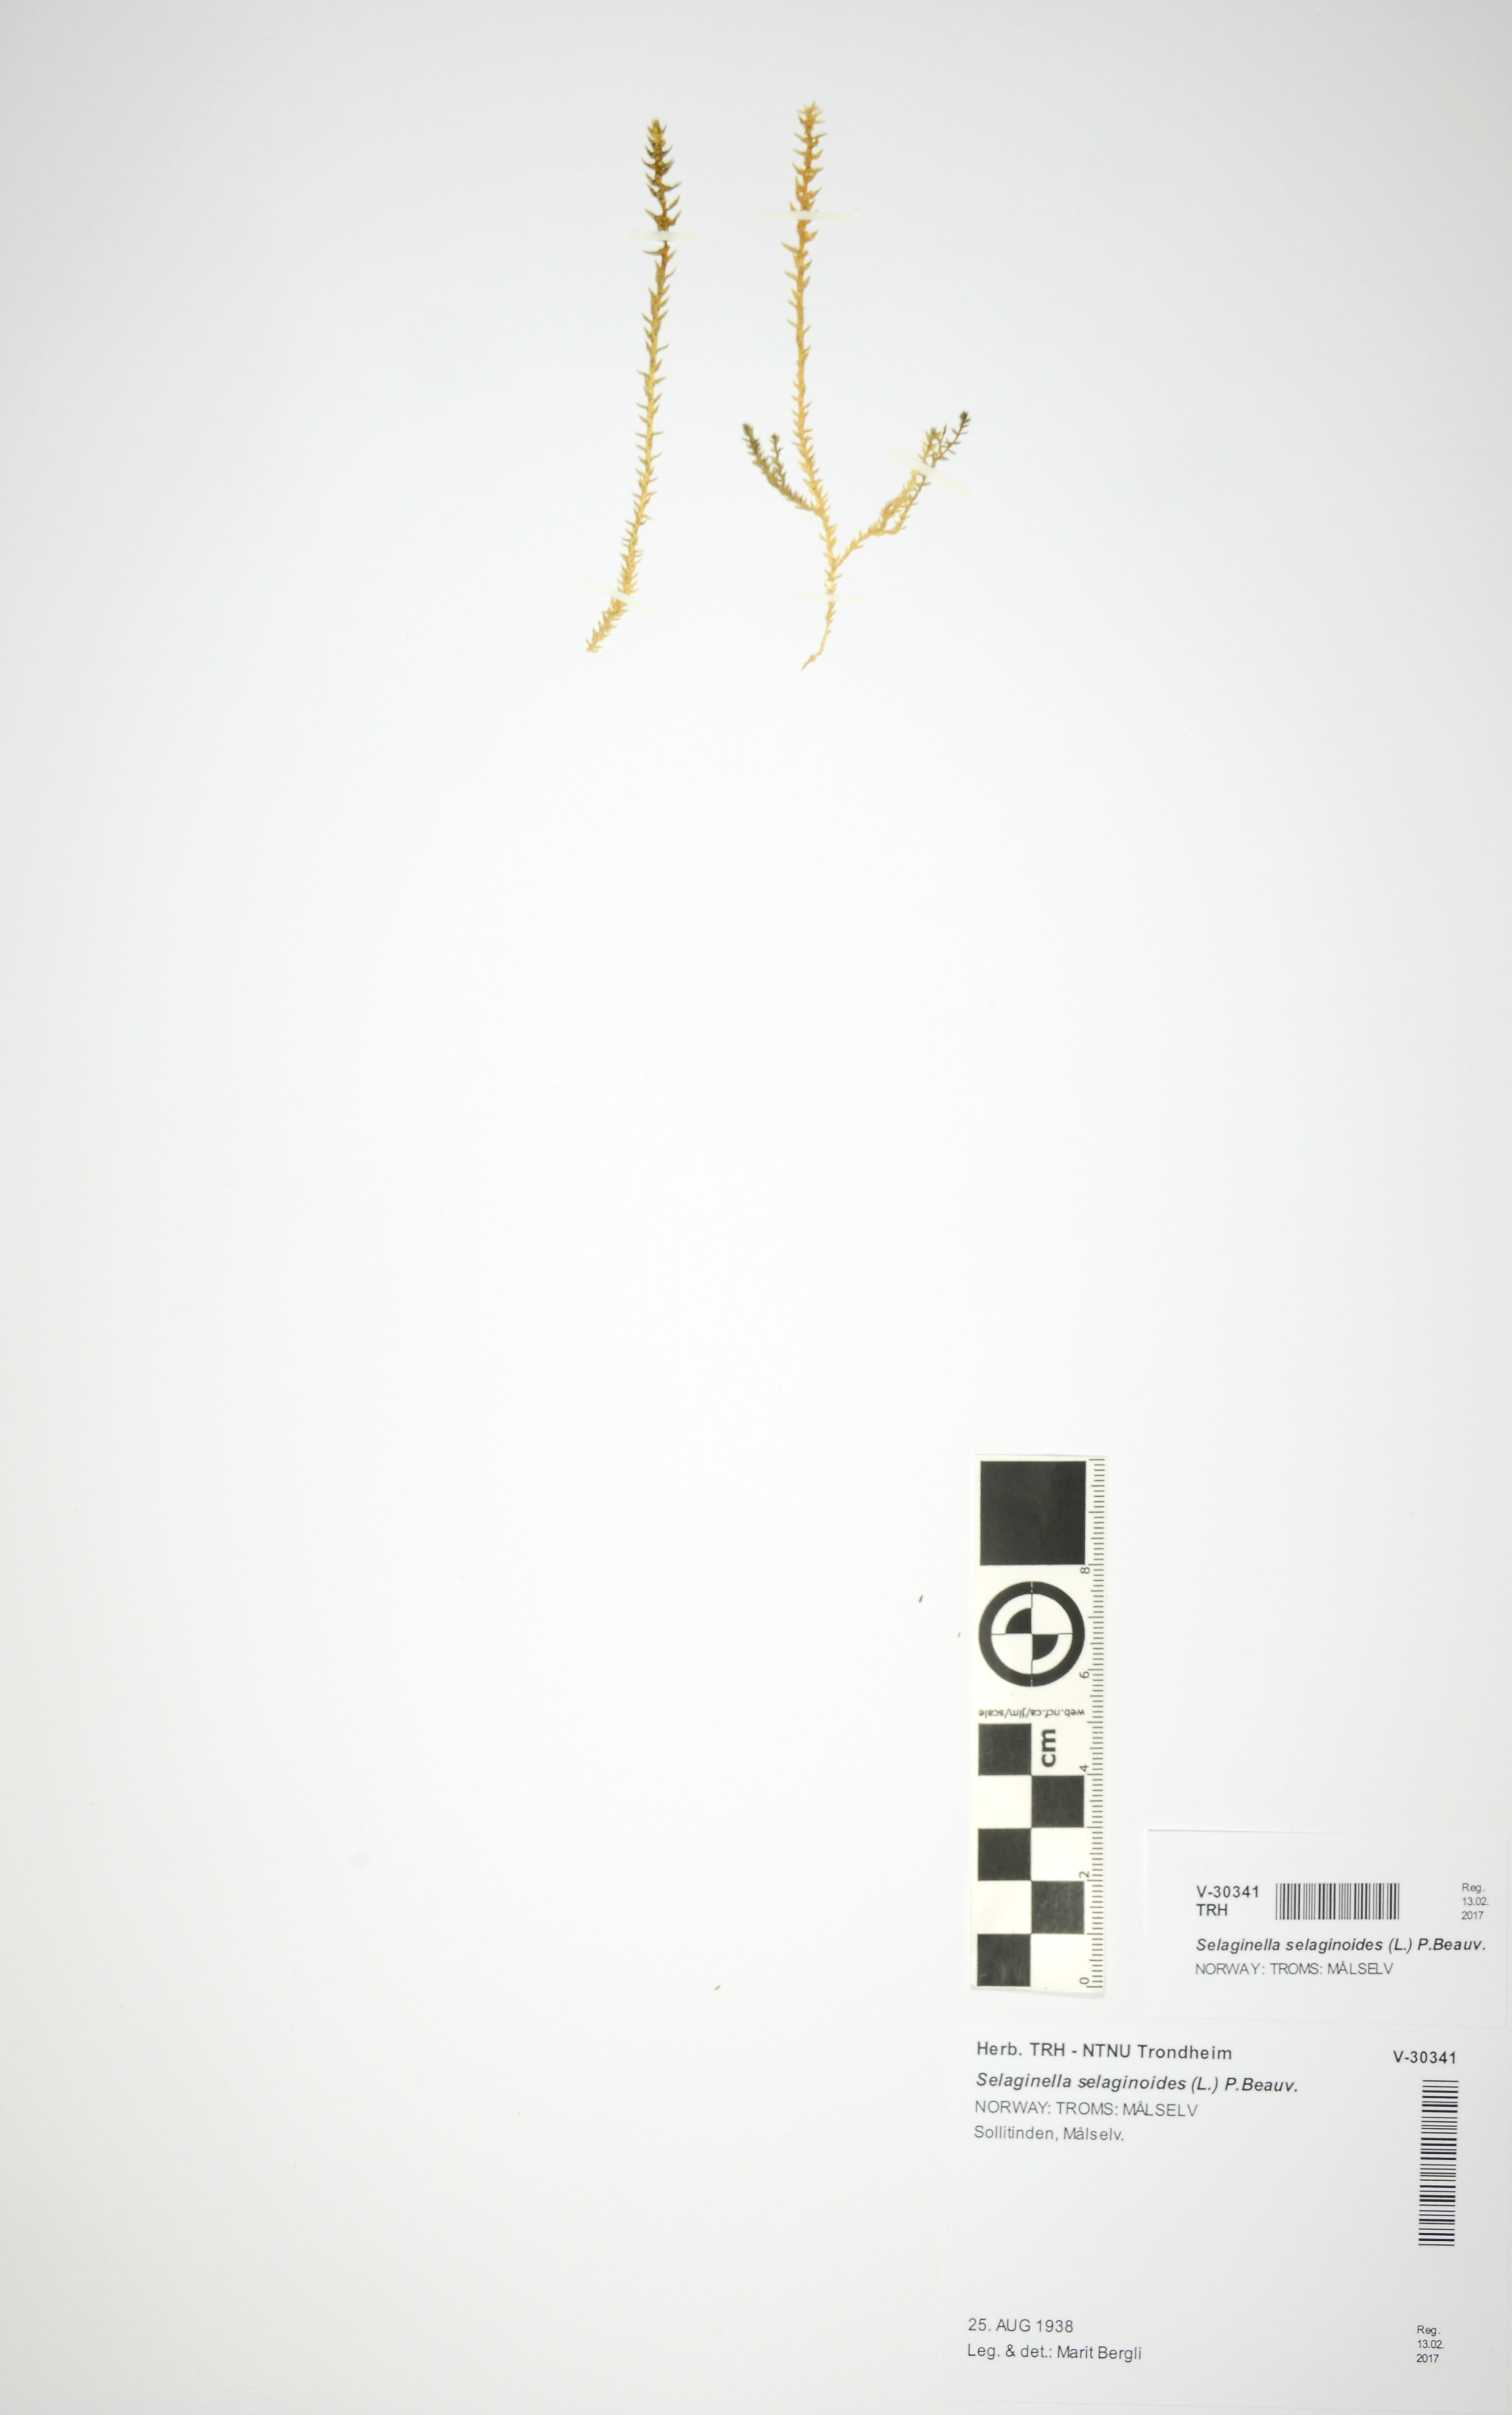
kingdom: Plantae
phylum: Tracheophyta
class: Lycopodiopsida
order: Selaginellales
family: Selaginellaceae
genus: Selaginella
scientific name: Selaginella selaginoides
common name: Prickly mountain-moss
